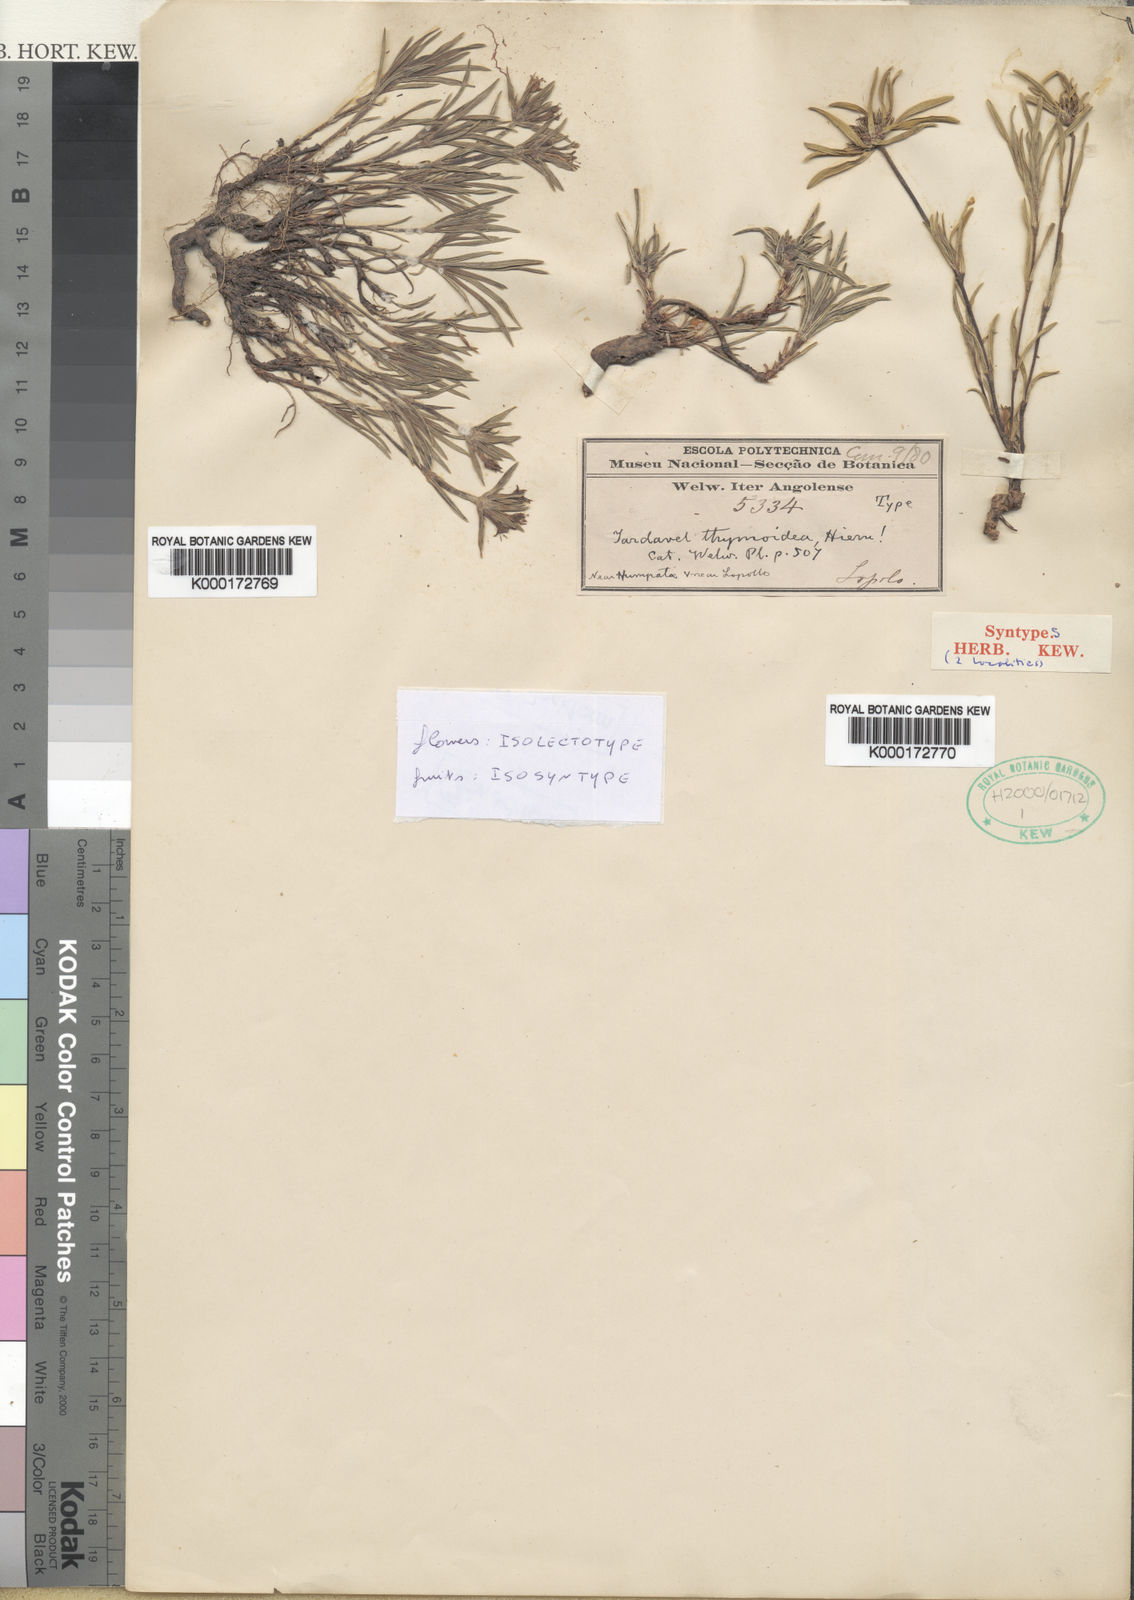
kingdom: Plantae
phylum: Tracheophyta
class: Magnoliopsida
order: Gentianales
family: Rubiaceae
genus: Spermacoce
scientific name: Spermacoce thymoidea
